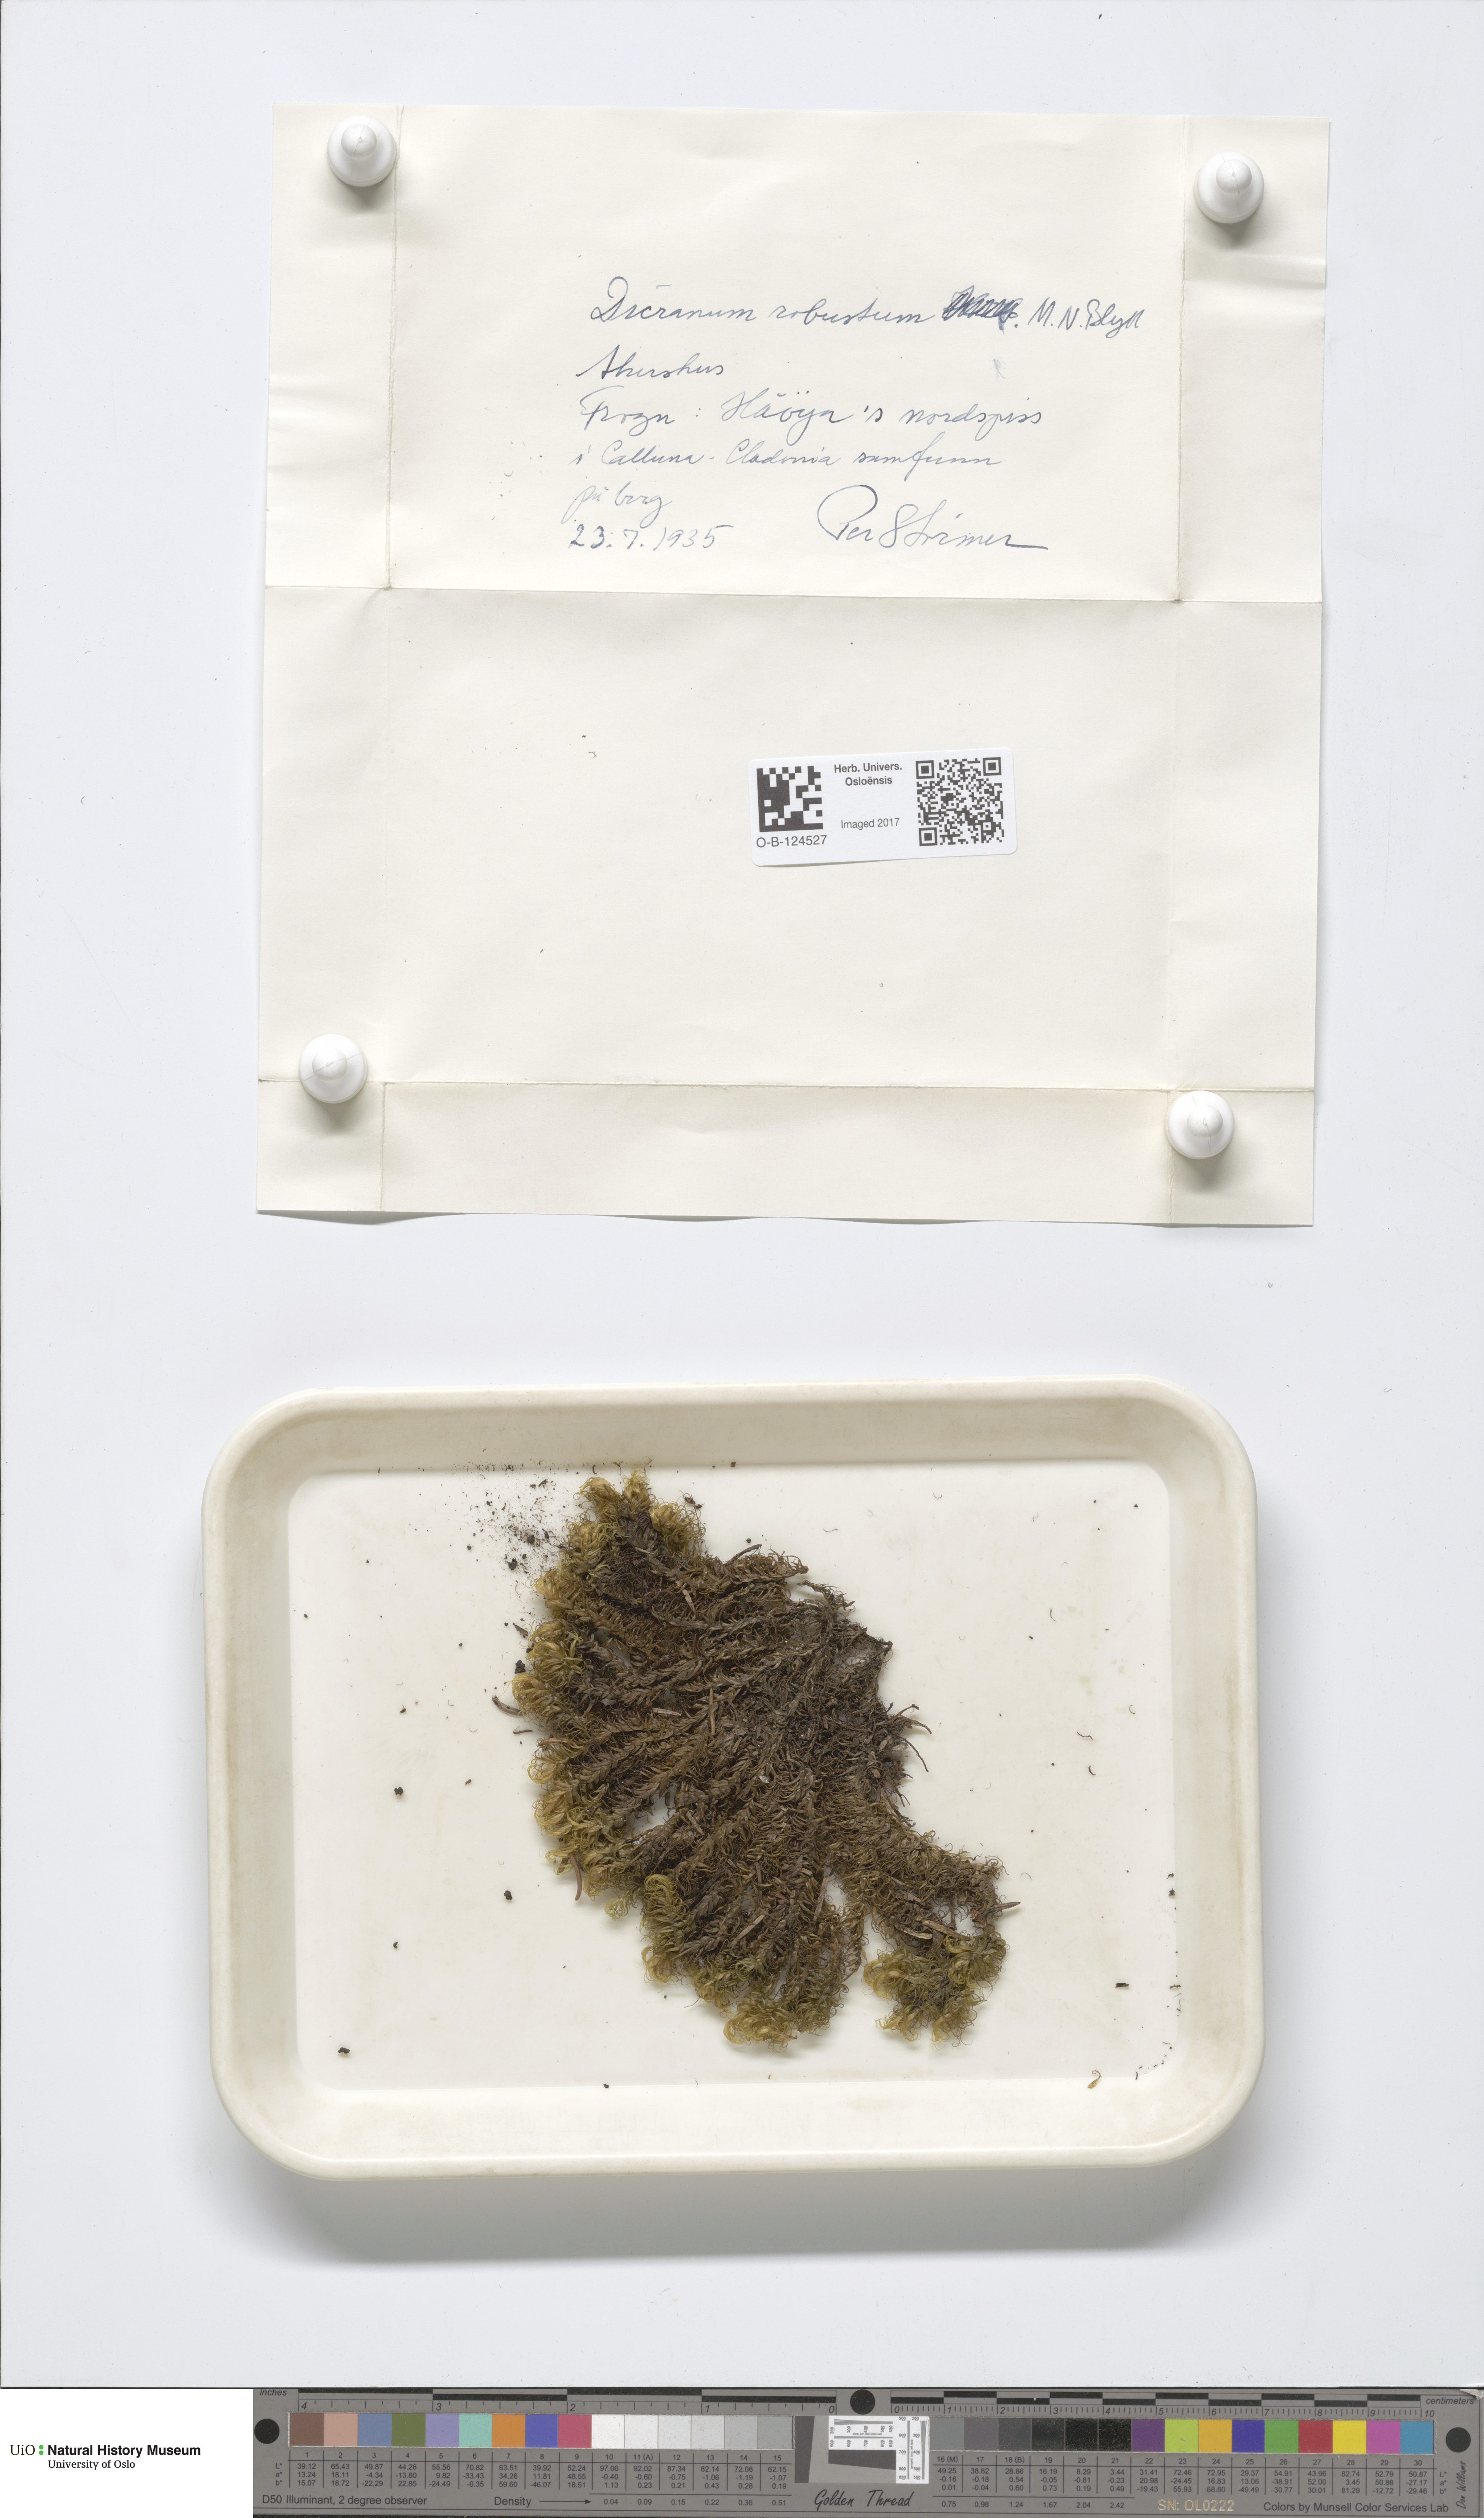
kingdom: Plantae
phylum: Bryophyta
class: Bryopsida
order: Dicranales
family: Dicranaceae
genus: Dicranum
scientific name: Dicranum drummondii
